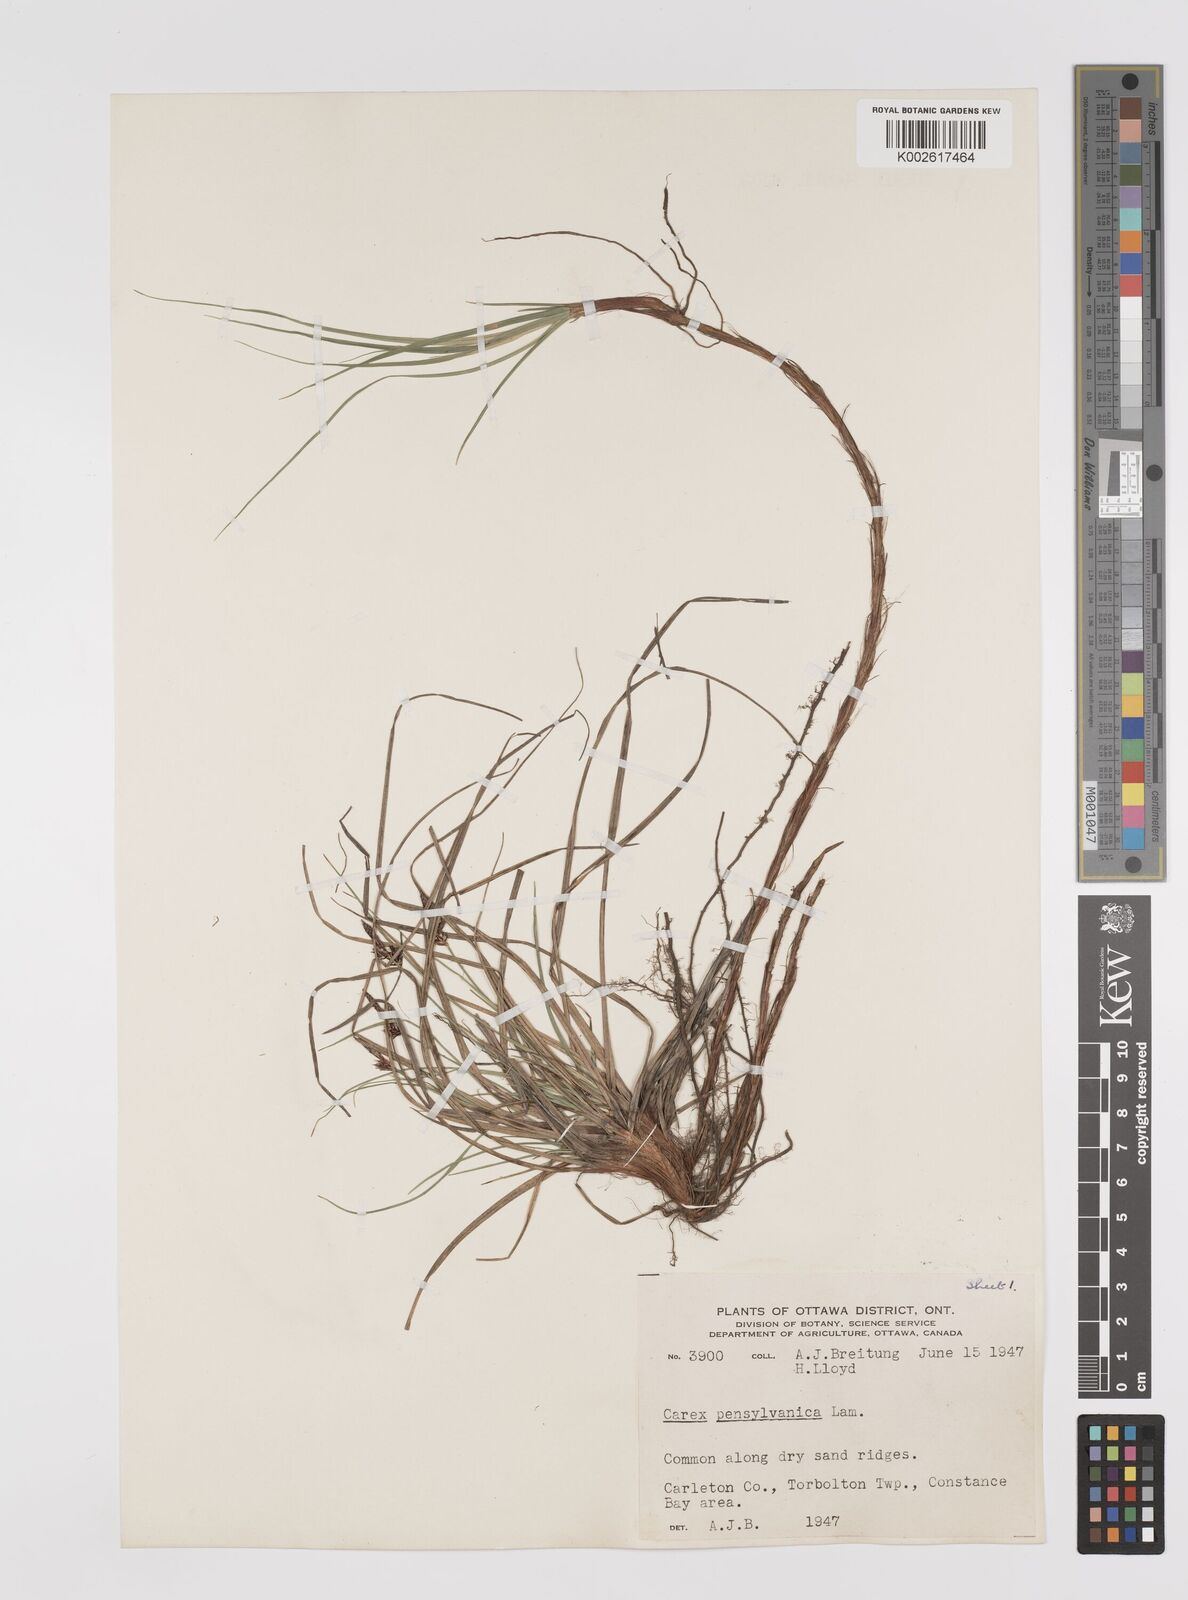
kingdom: Plantae
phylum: Tracheophyta
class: Liliopsida
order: Poales
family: Cyperaceae
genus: Carex
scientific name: Carex pensylvanica
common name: Common oak sedge
